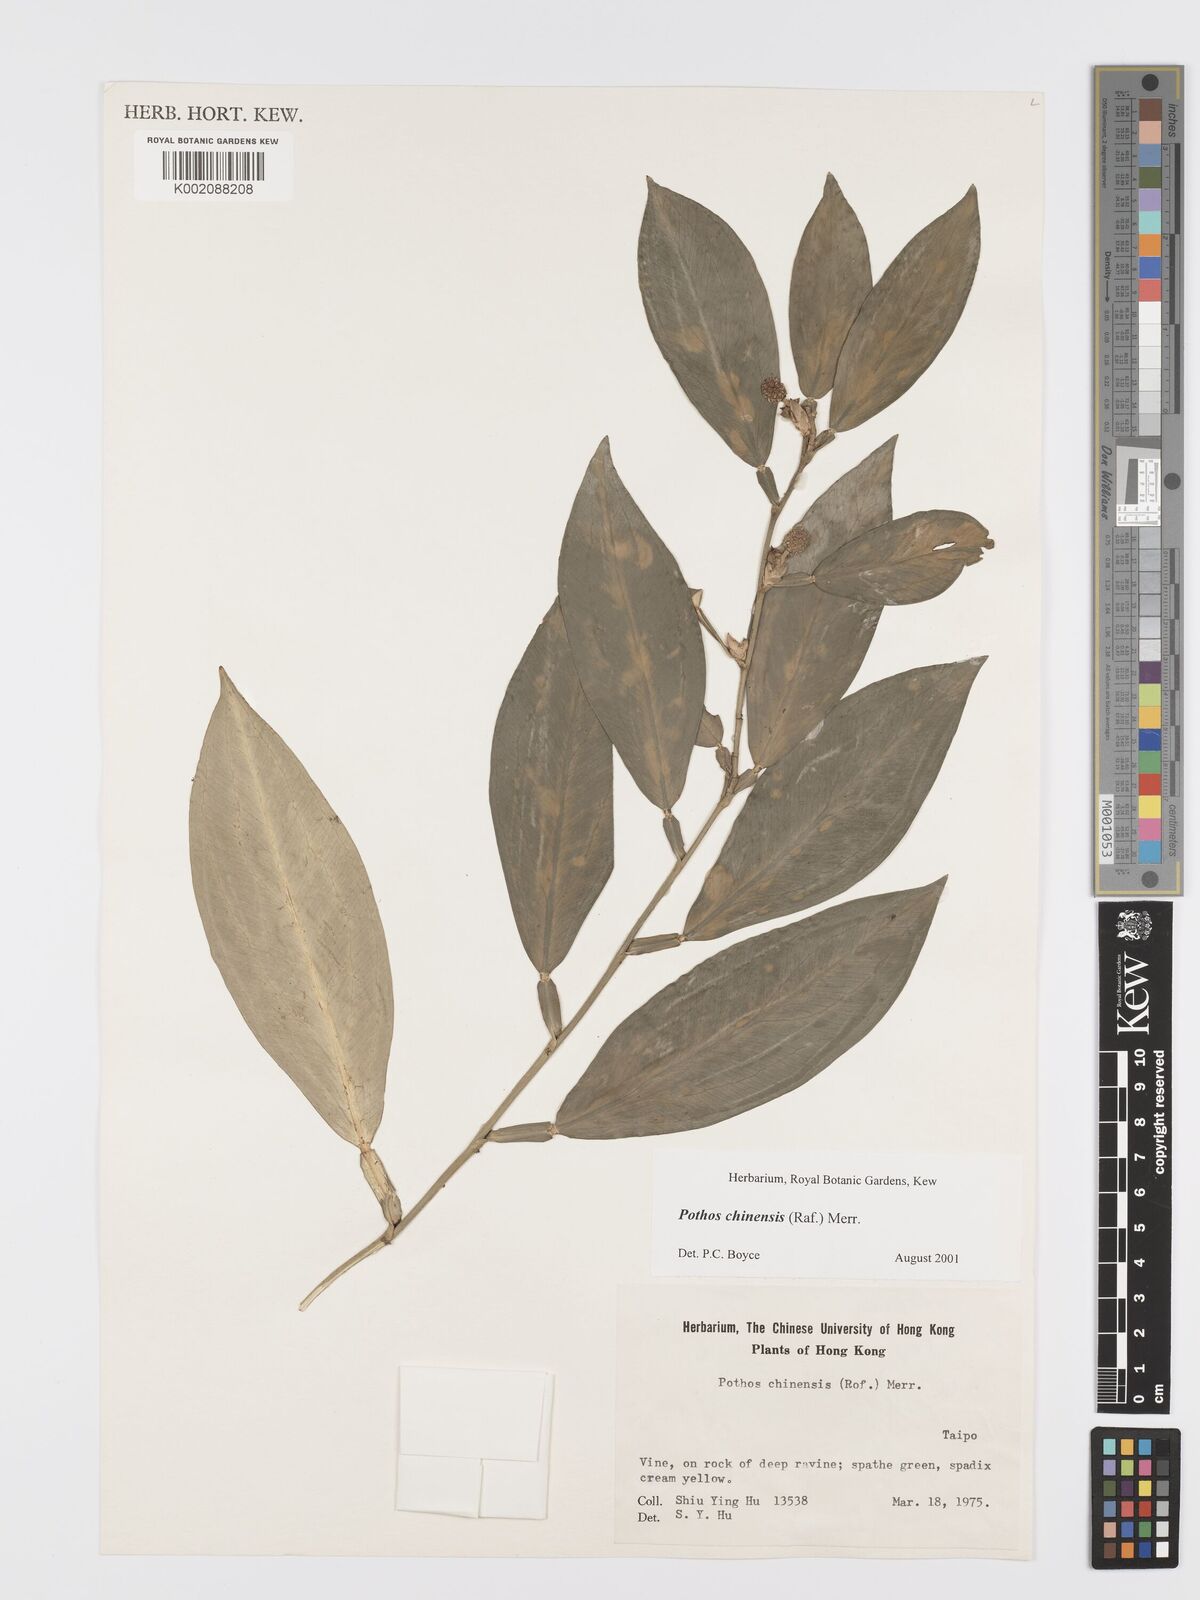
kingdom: Plantae
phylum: Tracheophyta
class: Liliopsida
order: Alismatales
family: Araceae
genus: Pothos
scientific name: Pothos chinensis
